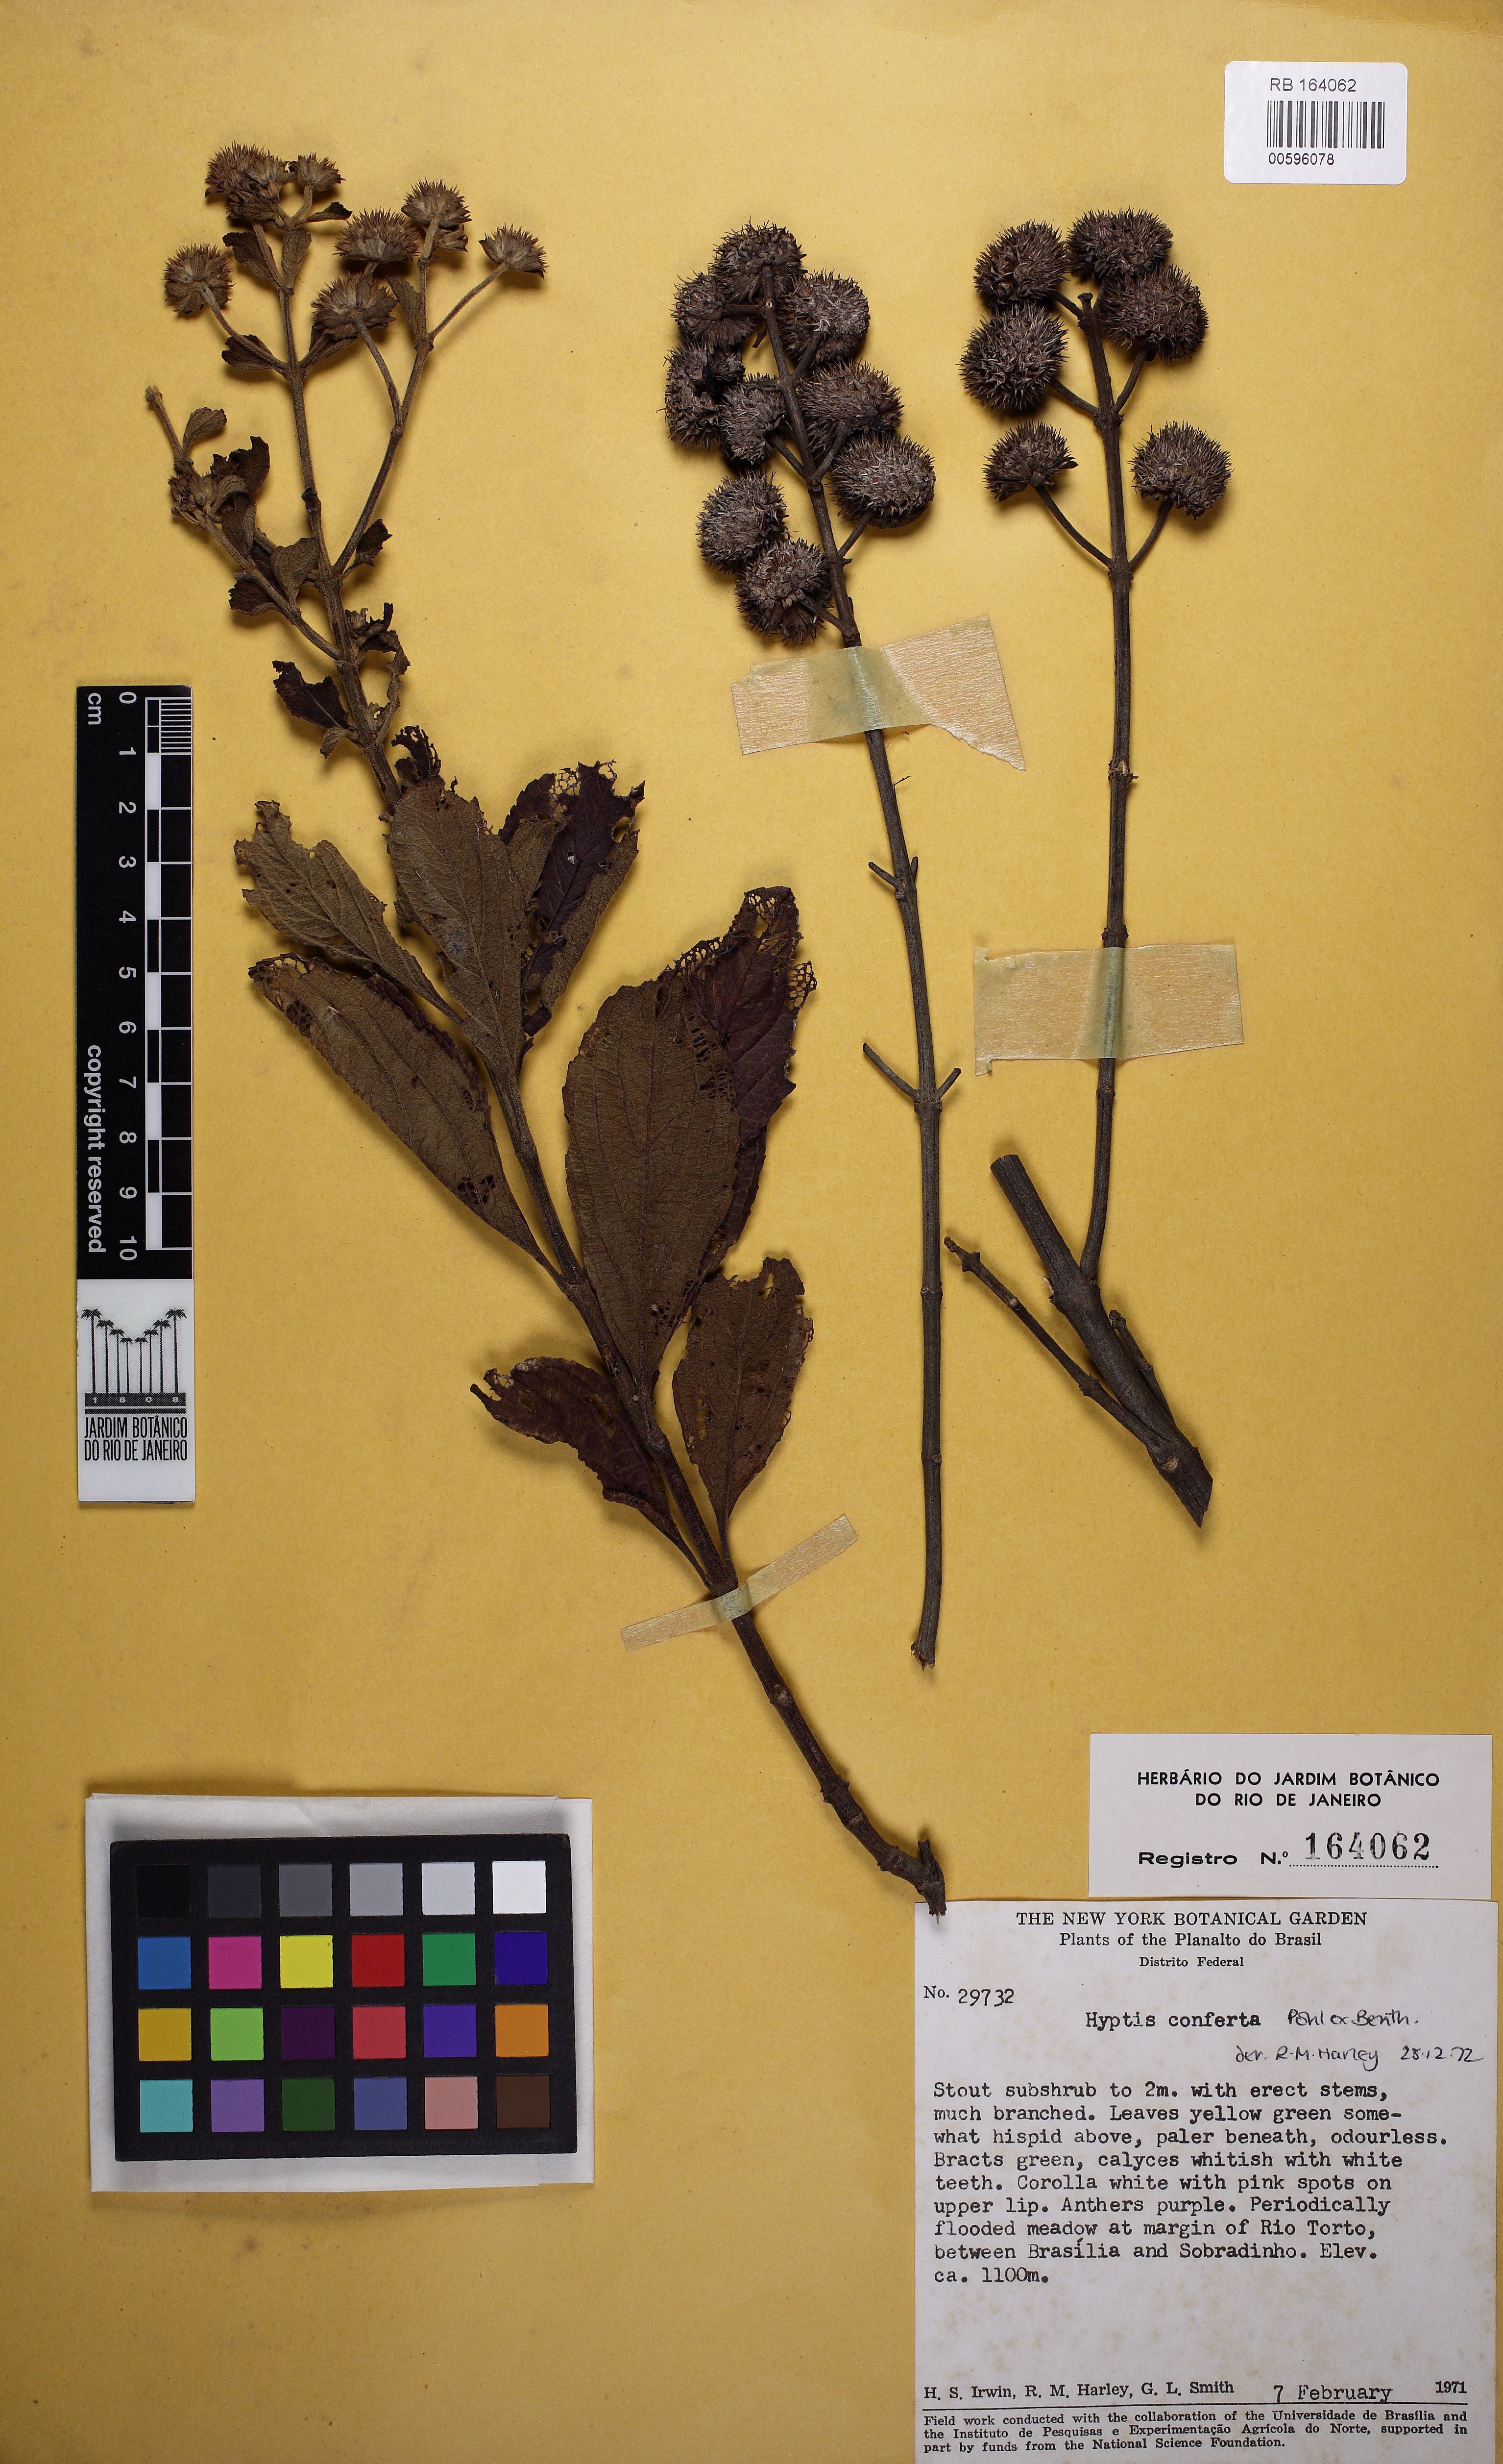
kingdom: Plantae
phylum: Tracheophyta
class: Magnoliopsida
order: Lamiales
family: Lamiaceae
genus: Hyptis
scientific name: Hyptis conferta
